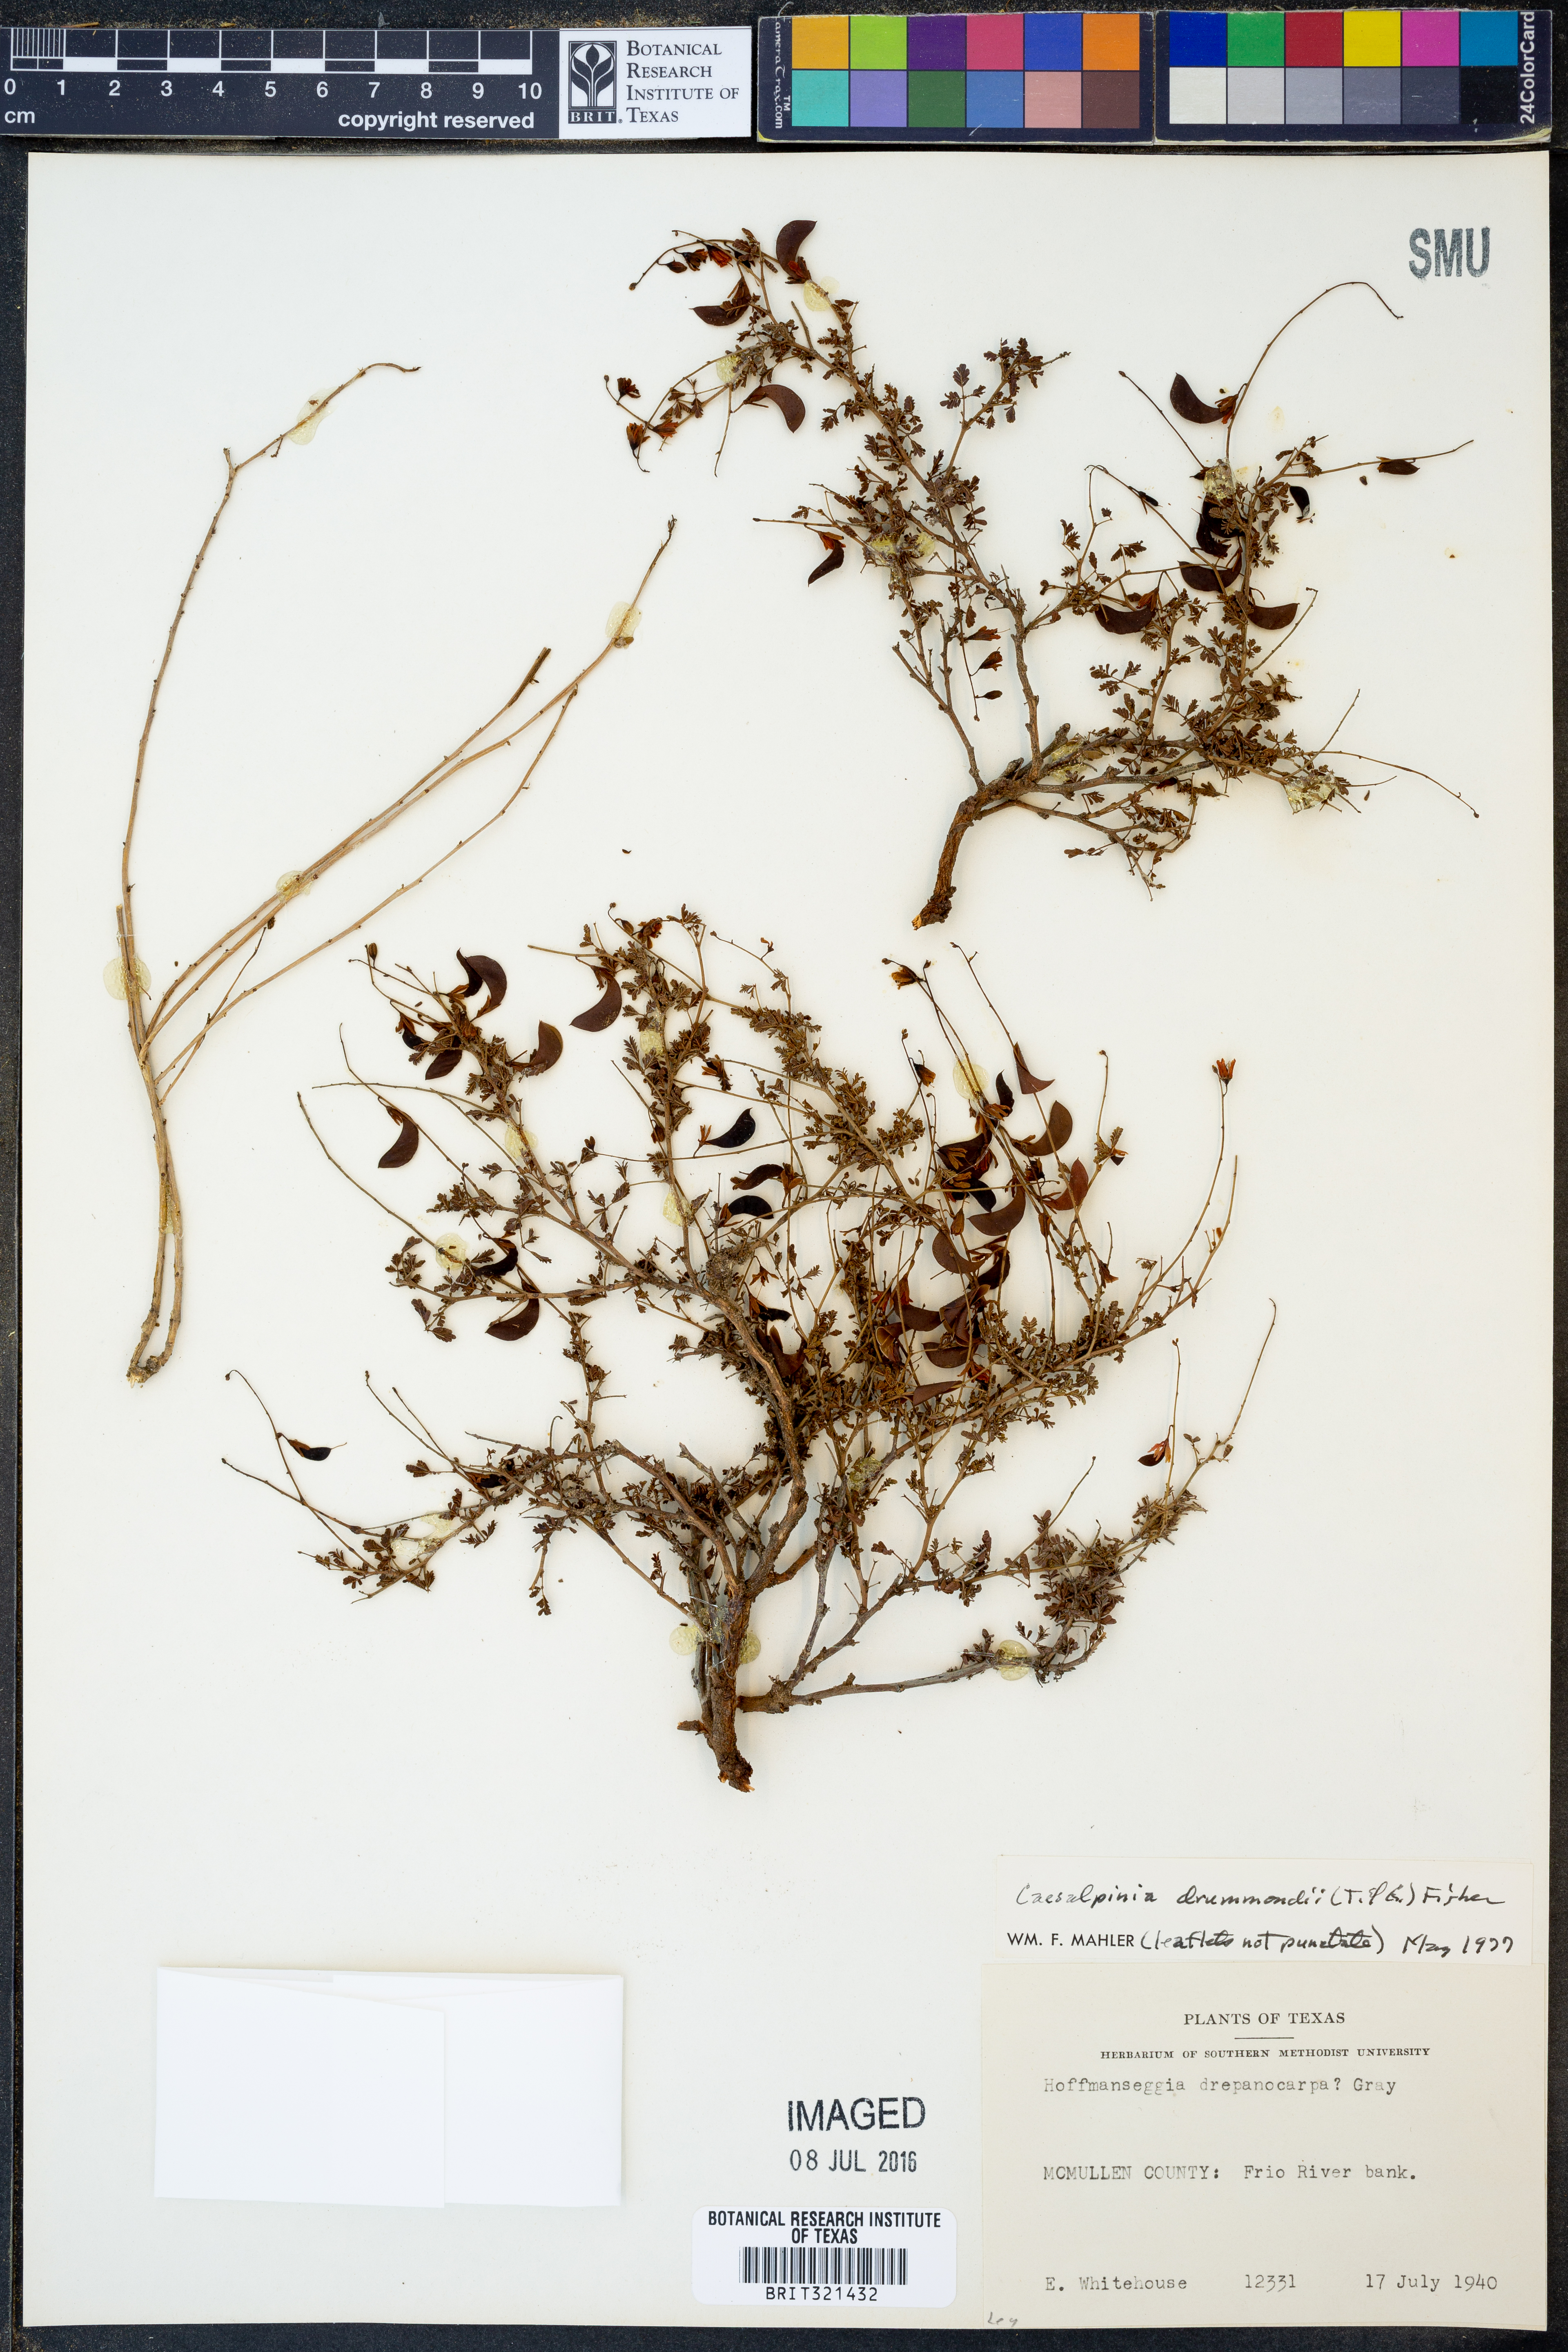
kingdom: Plantae
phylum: Tracheophyta
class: Magnoliopsida
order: Fabales
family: Fabaceae
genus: Hoffmannseggia
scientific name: Hoffmannseggia drummondii
